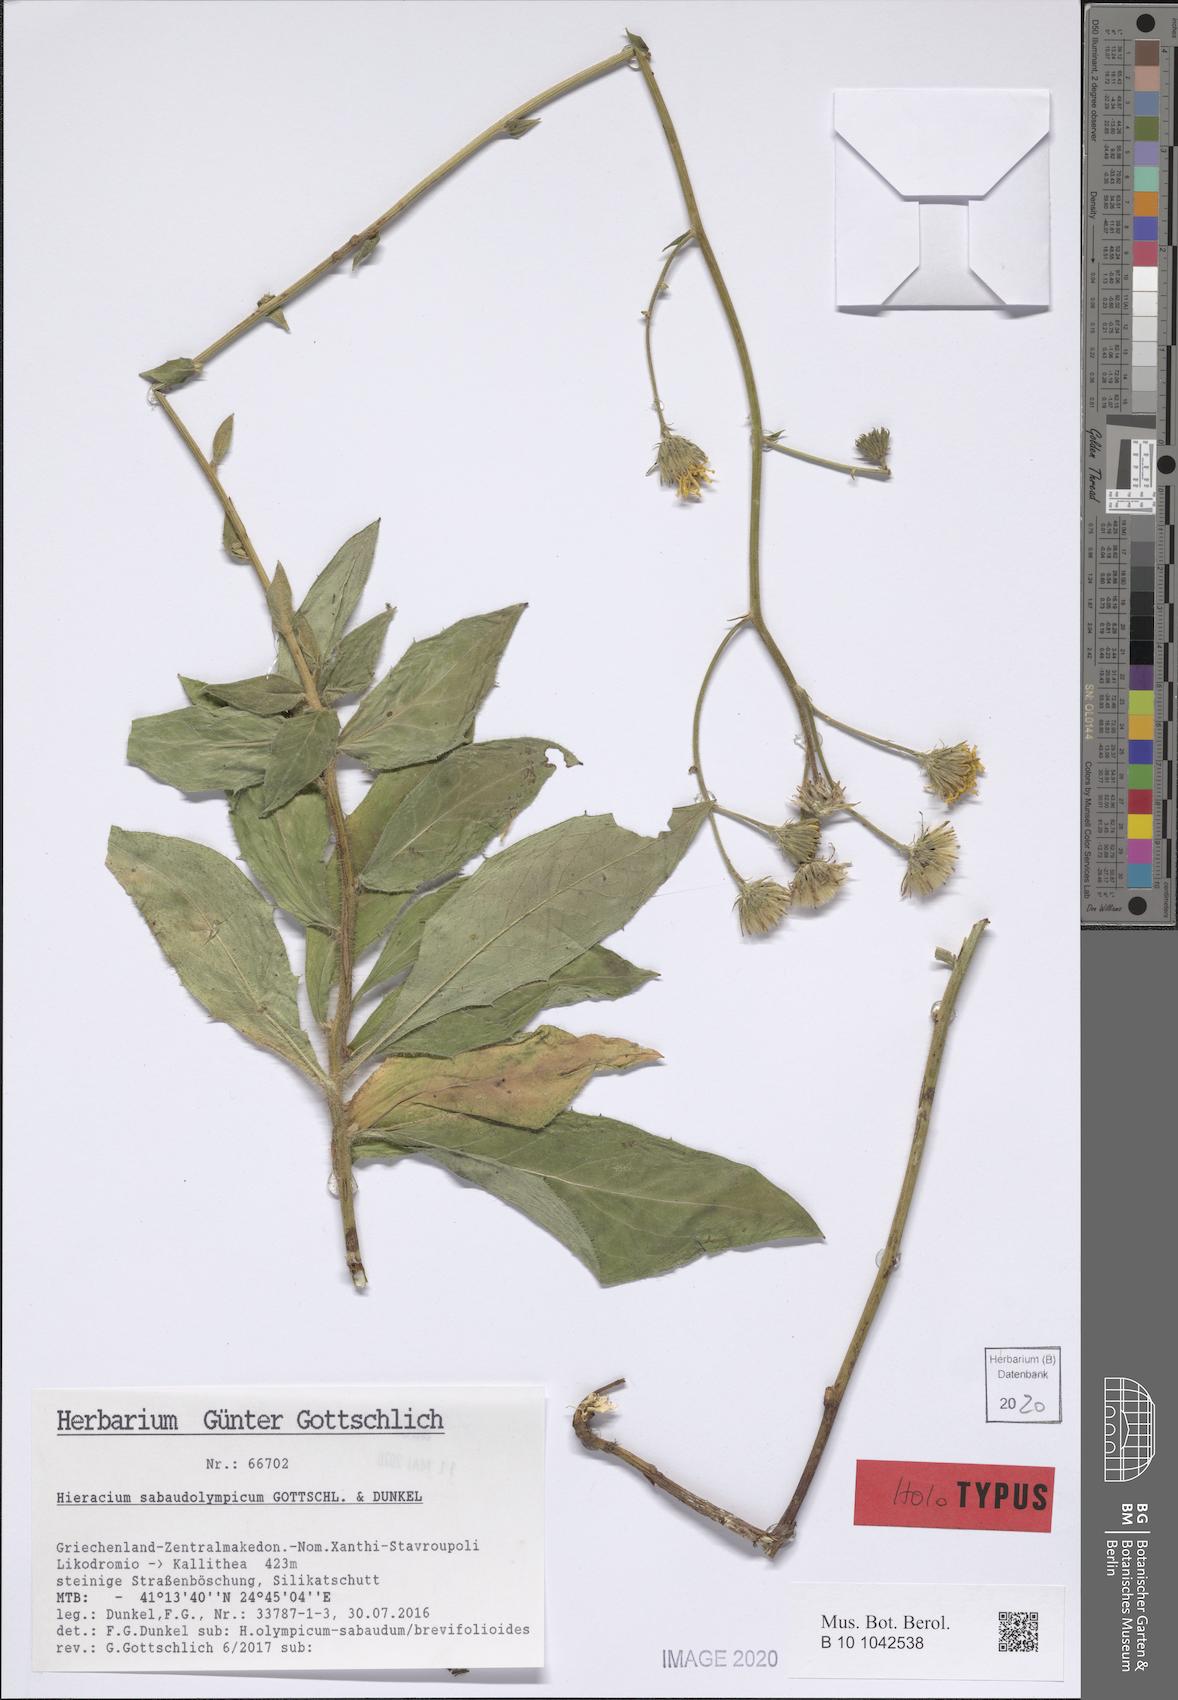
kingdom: Plantae
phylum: Tracheophyta
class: Magnoliopsida
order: Asterales
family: Asteraceae
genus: Hieracium
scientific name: Hieracium sabaudolympicum
